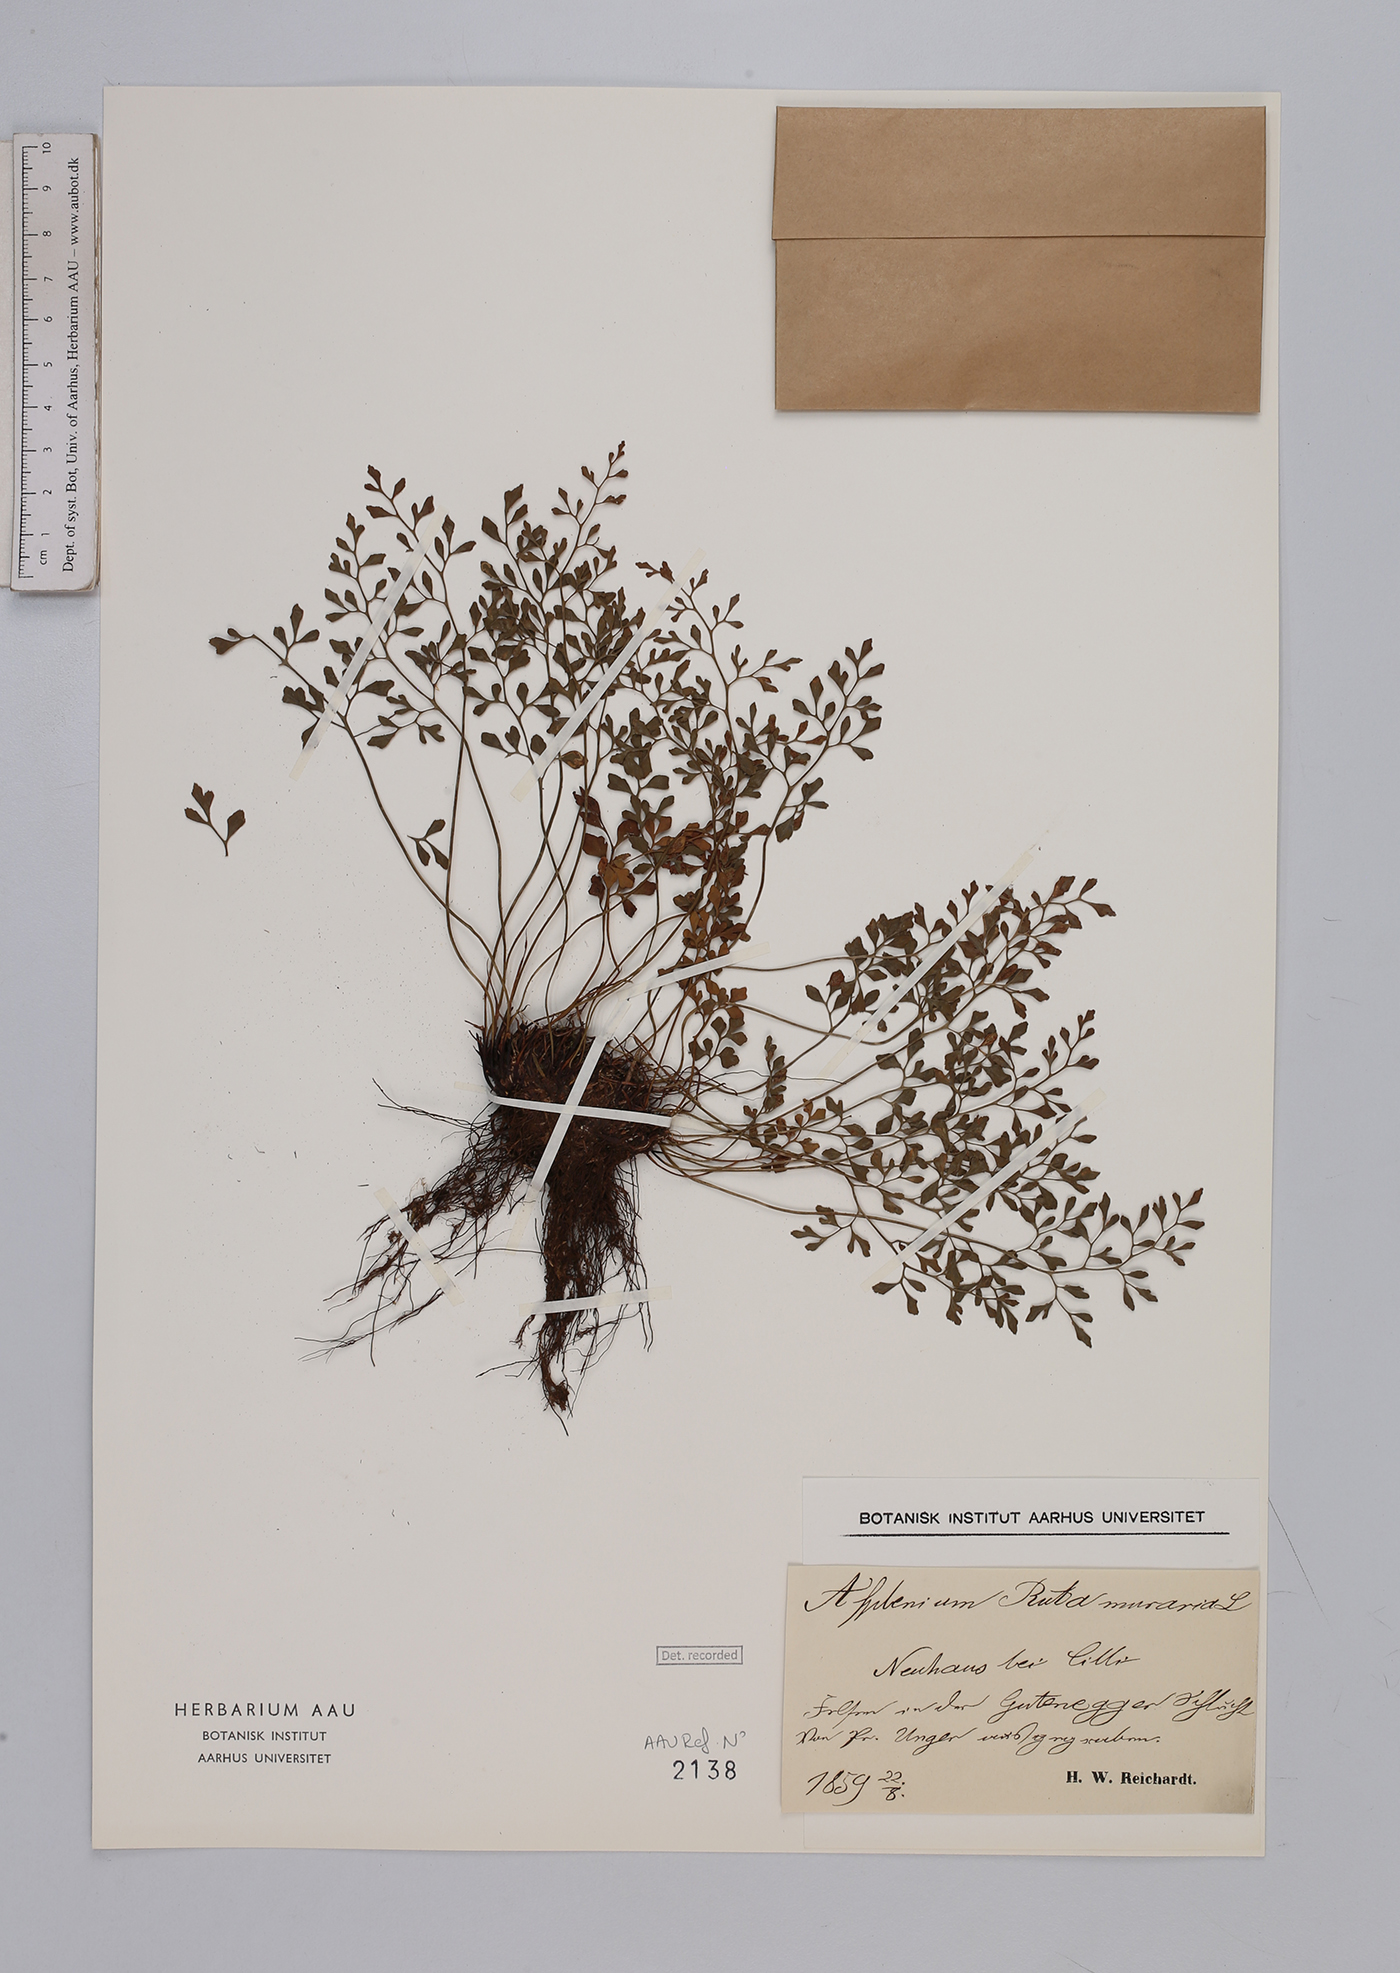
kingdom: Plantae
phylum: Tracheophyta
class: Polypodiopsida
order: Polypodiales
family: Aspleniaceae
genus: Asplenium
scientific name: Asplenium ruta-muraria
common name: Wall-rue
